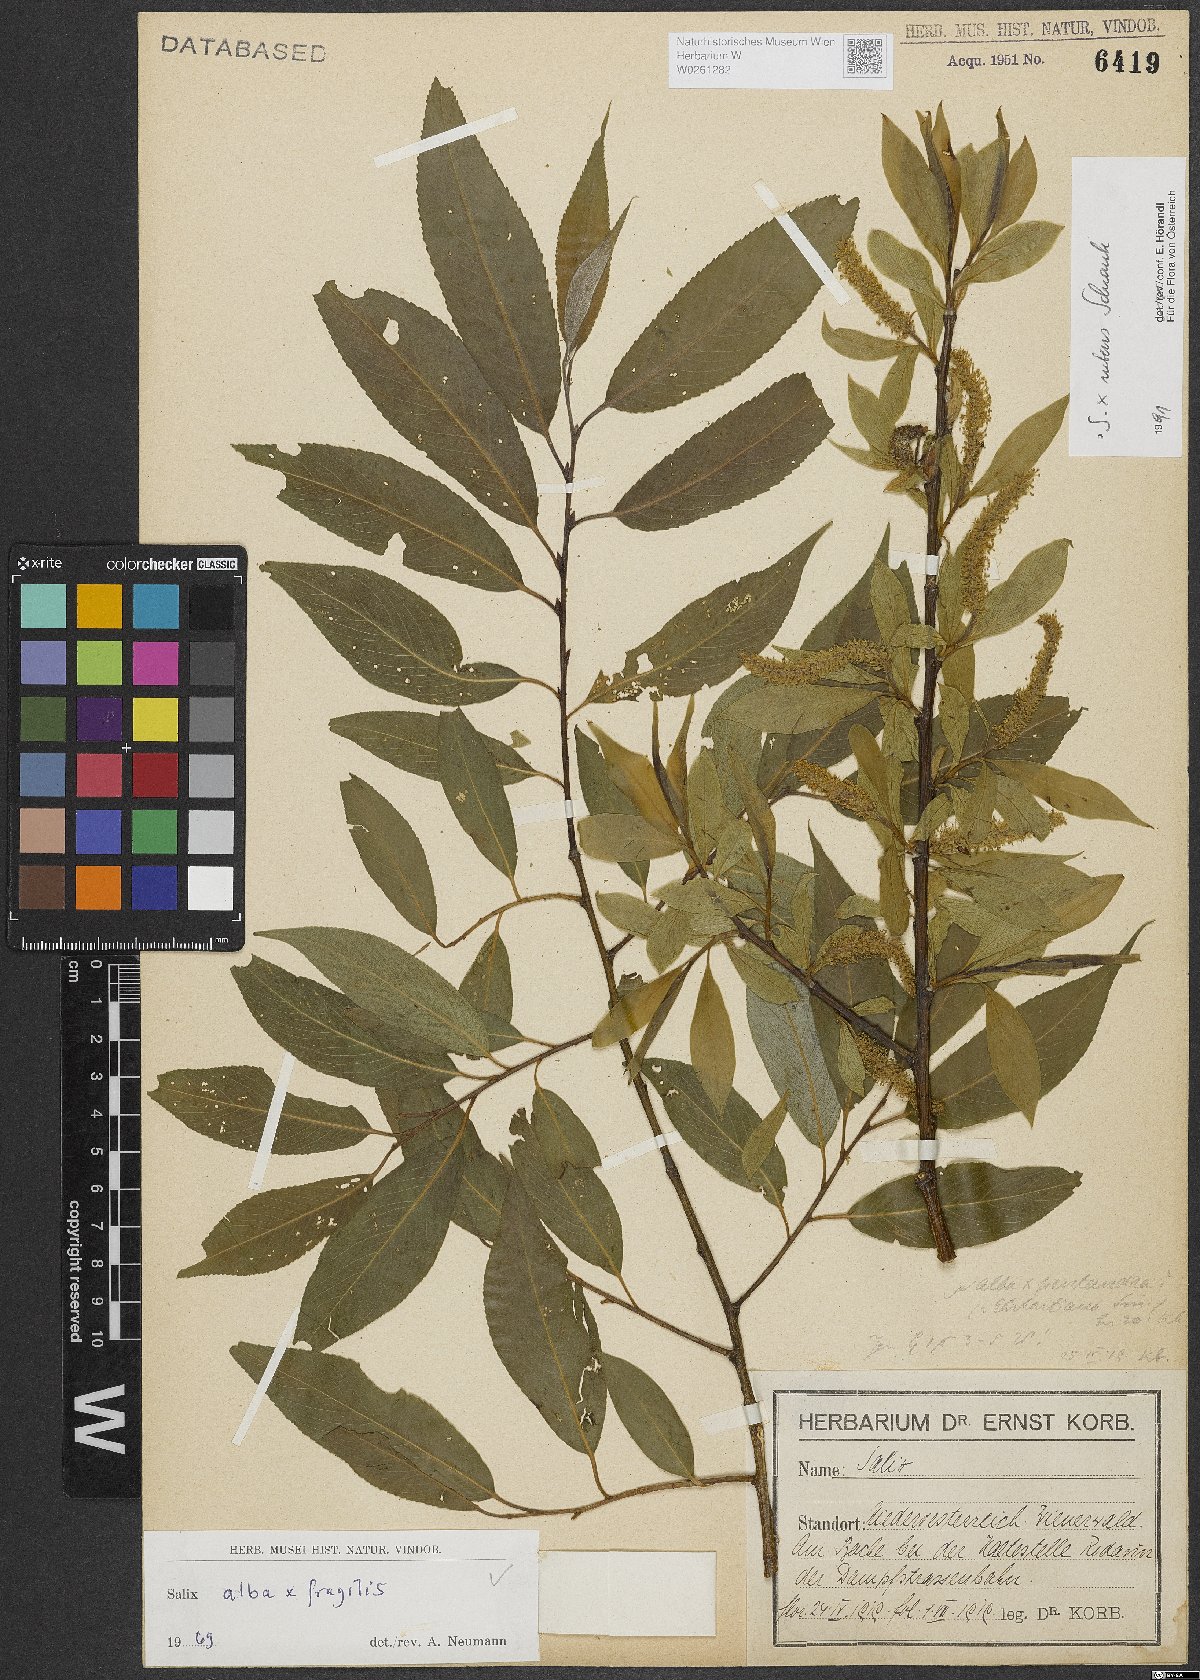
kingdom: Plantae
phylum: Tracheophyta
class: Magnoliopsida
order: Malpighiales
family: Salicaceae
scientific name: Salicaceae
